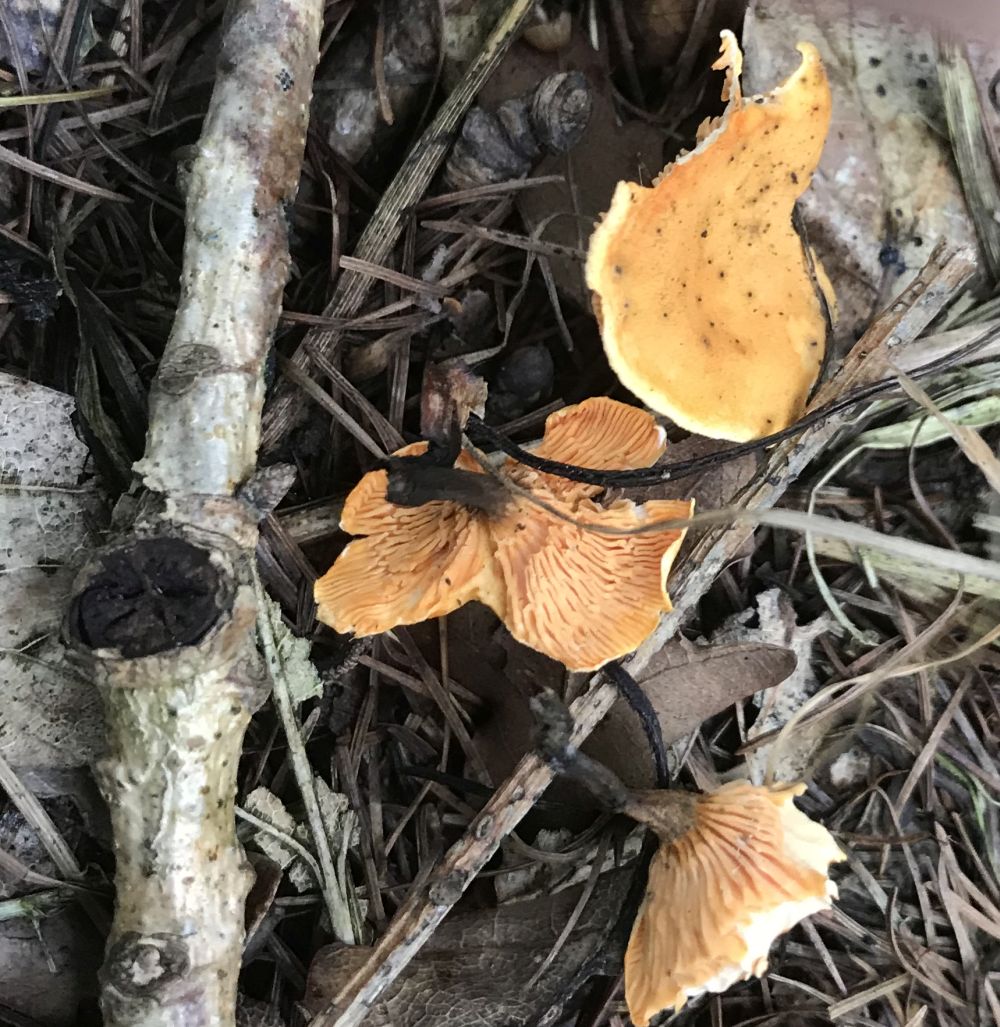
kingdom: Fungi
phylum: Basidiomycota
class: Agaricomycetes
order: Boletales
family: Hygrophoropsidaceae
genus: Hygrophoropsis
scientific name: Hygrophoropsis aurantiaca
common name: almindelig orangekantarel
